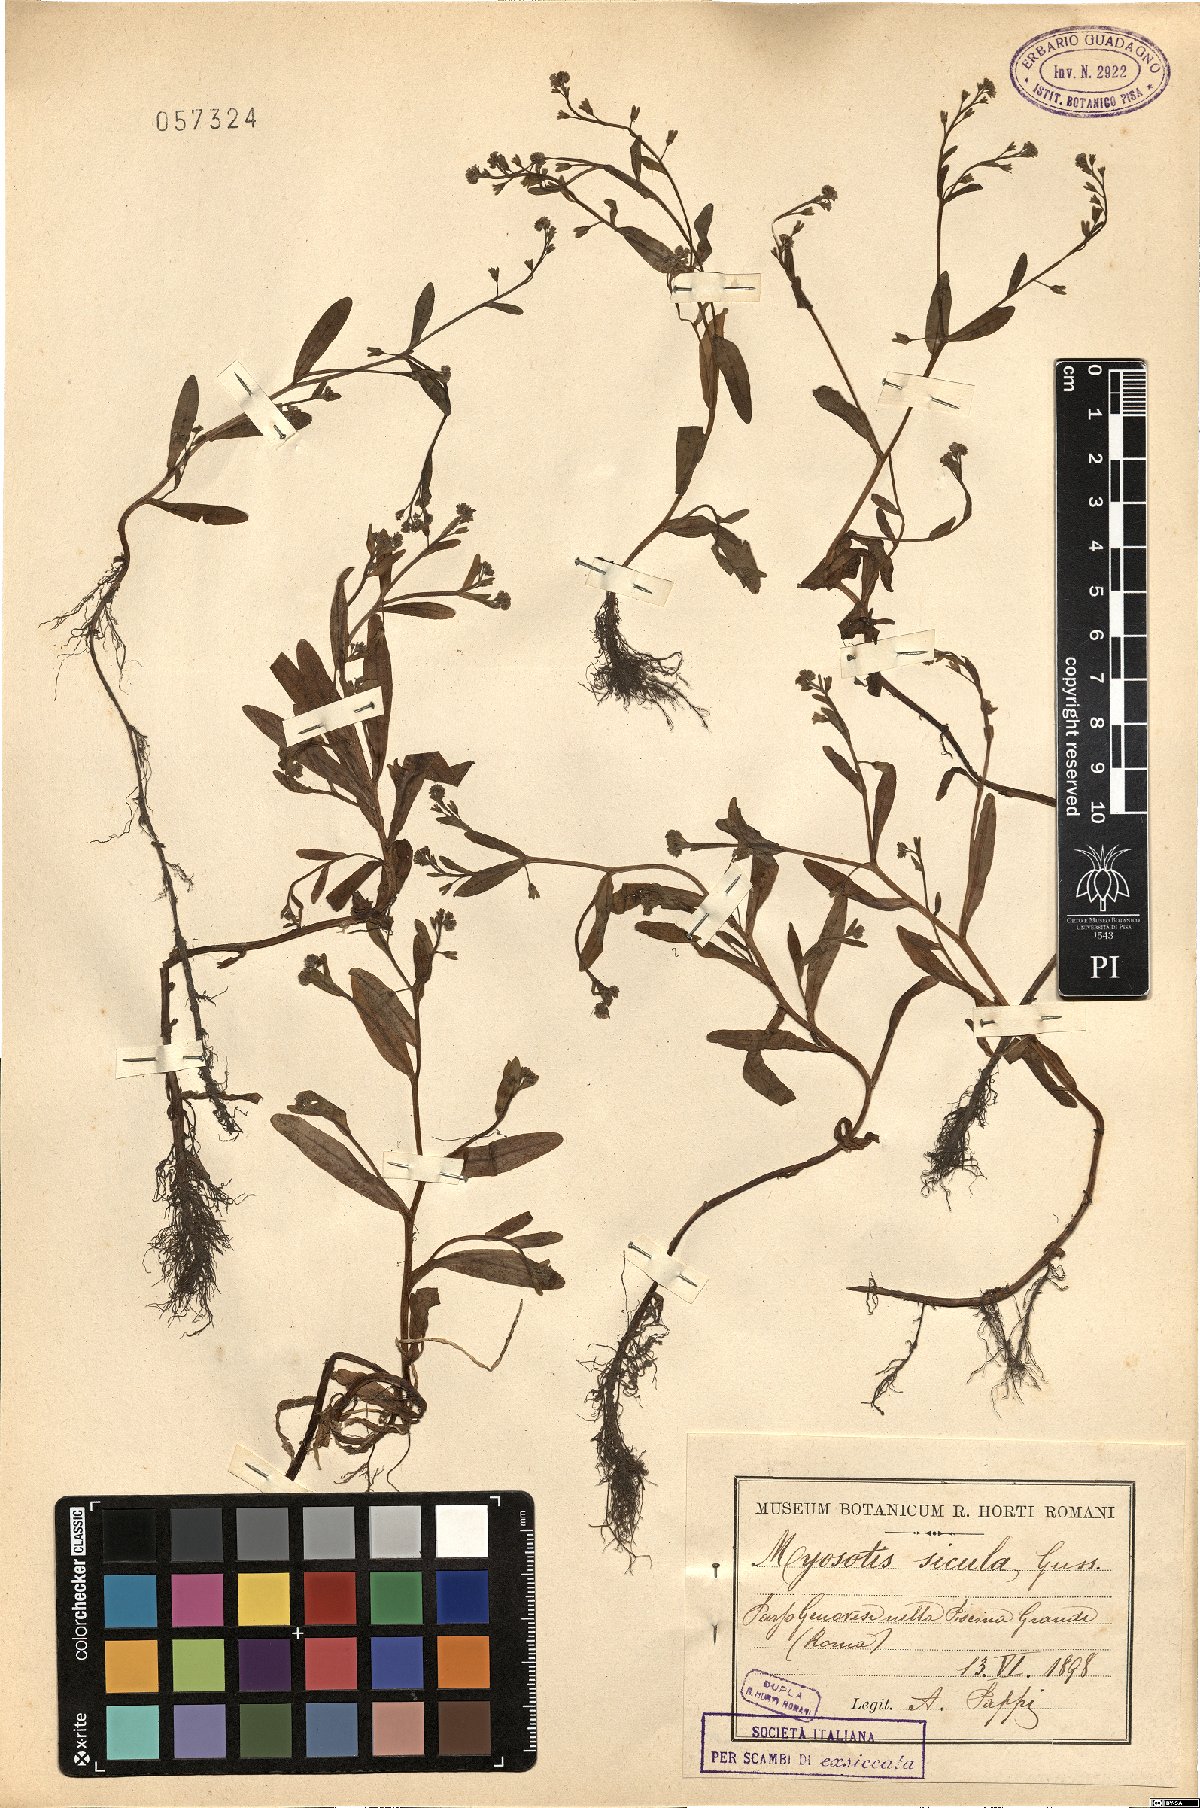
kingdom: Plantae
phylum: Tracheophyta
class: Magnoliopsida
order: Boraginales
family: Boraginaceae
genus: Myosotis
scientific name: Myosotis sicula
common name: Jersey forget-me-not
